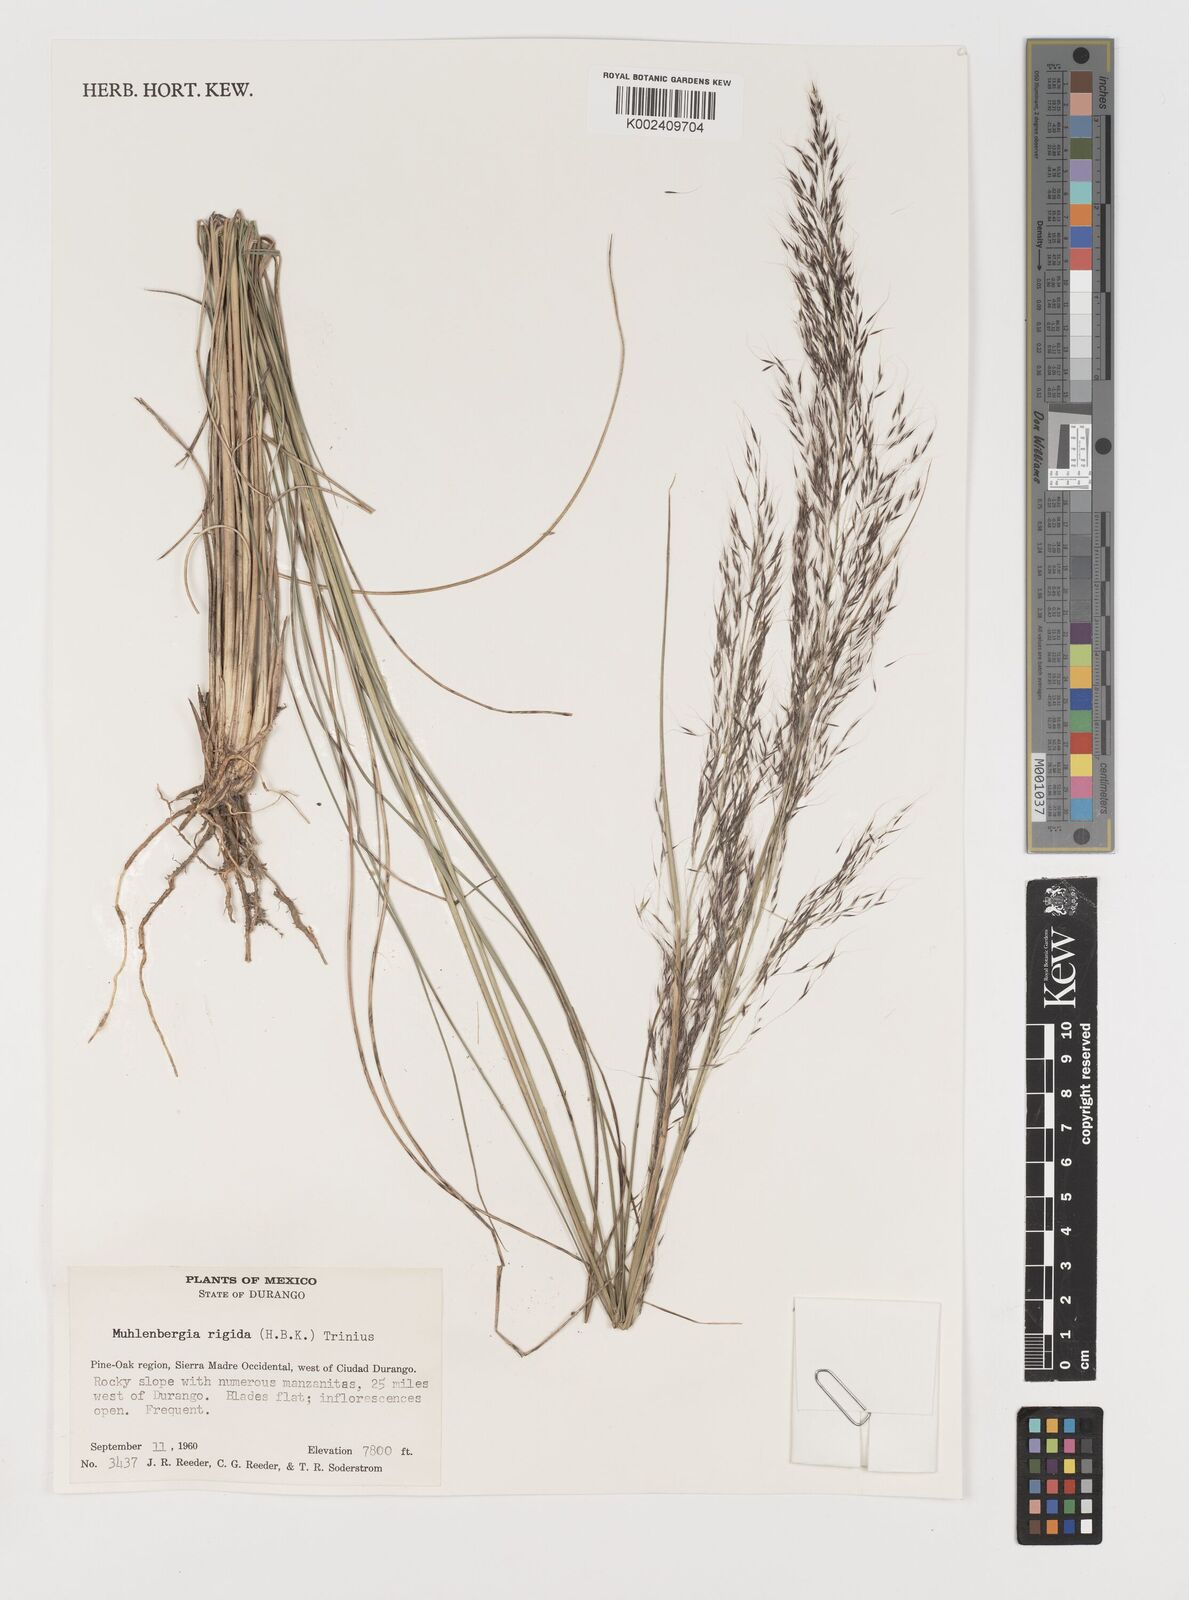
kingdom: Plantae
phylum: Tracheophyta
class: Liliopsida
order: Poales
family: Poaceae
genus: Muhlenbergia
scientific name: Muhlenbergia rigida
